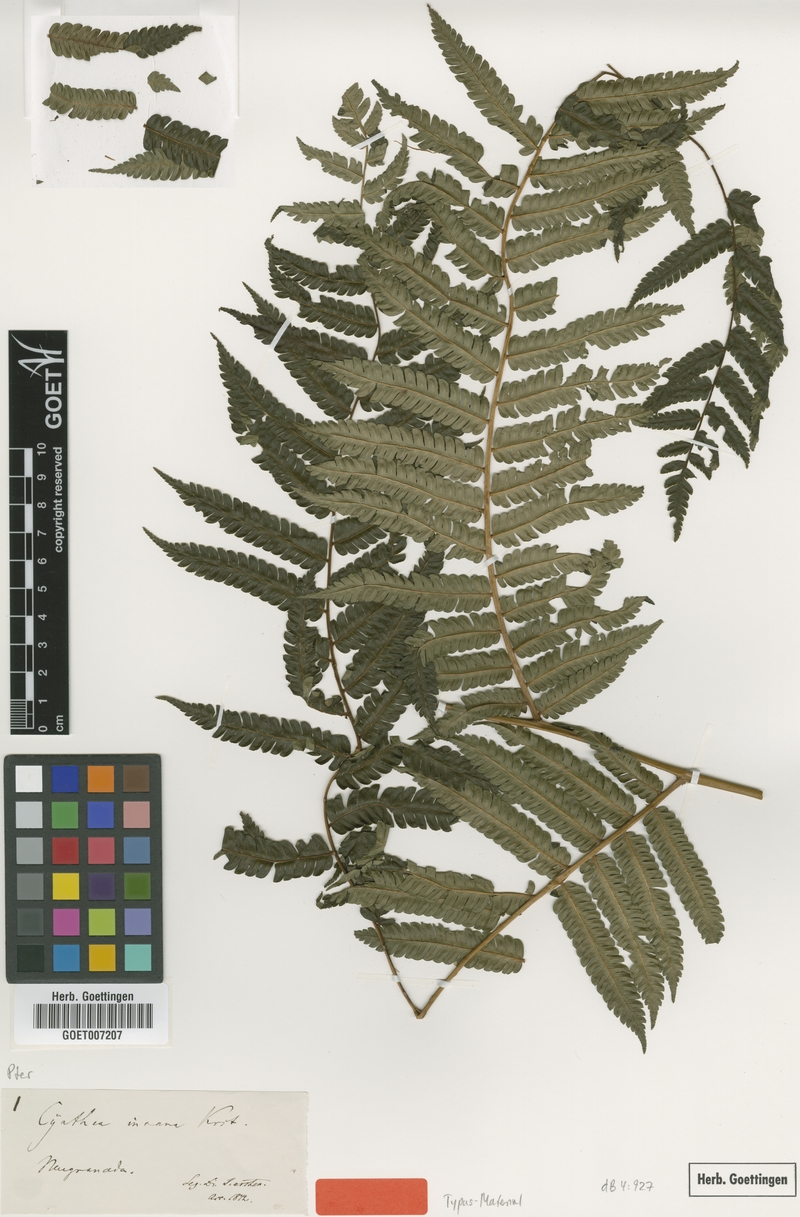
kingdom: Plantae
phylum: Tracheophyta
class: Polypodiopsida
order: Cyatheales
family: Cyatheaceae
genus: Alsophila
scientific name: Alsophila incana
